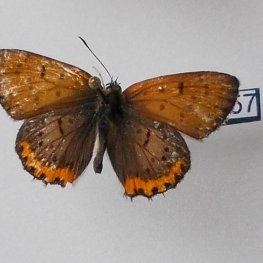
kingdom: Animalia
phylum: Arthropoda
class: Insecta
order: Lepidoptera
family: Sesiidae
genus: Sesia
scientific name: Sesia Lycaena hyllus
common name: Bronze Copper
